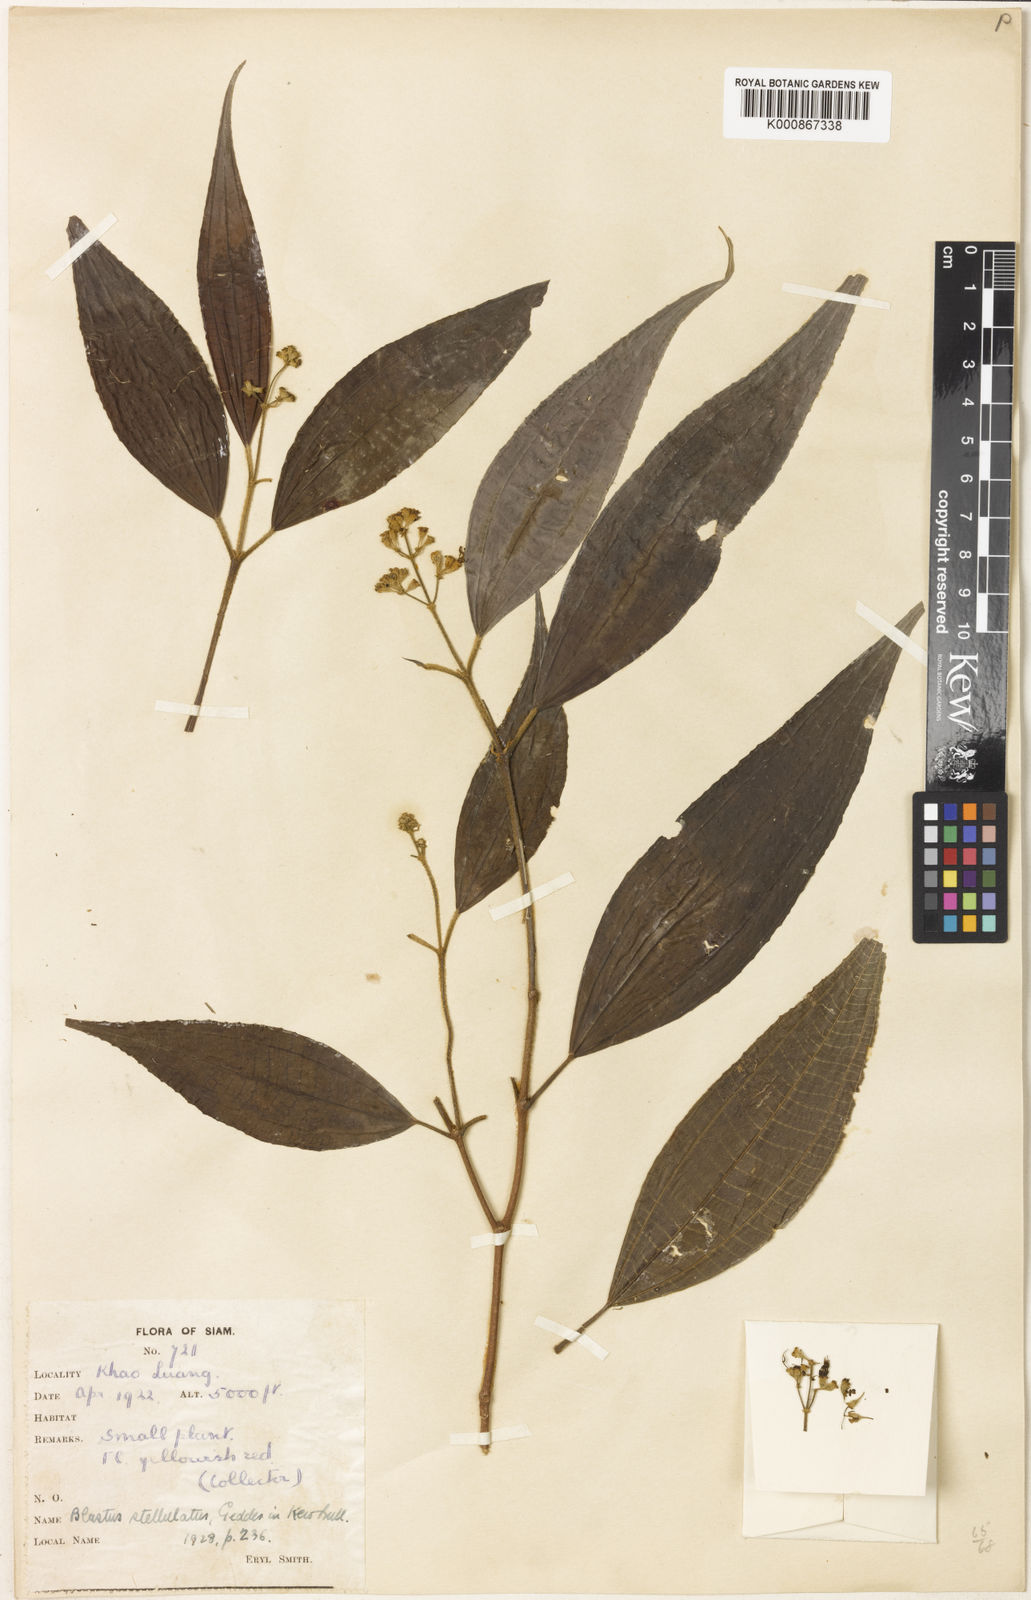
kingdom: Plantae
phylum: Tracheophyta
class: Magnoliopsida
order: Myrtales
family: Melastomataceae
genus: Blastus
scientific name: Blastus borneensis
